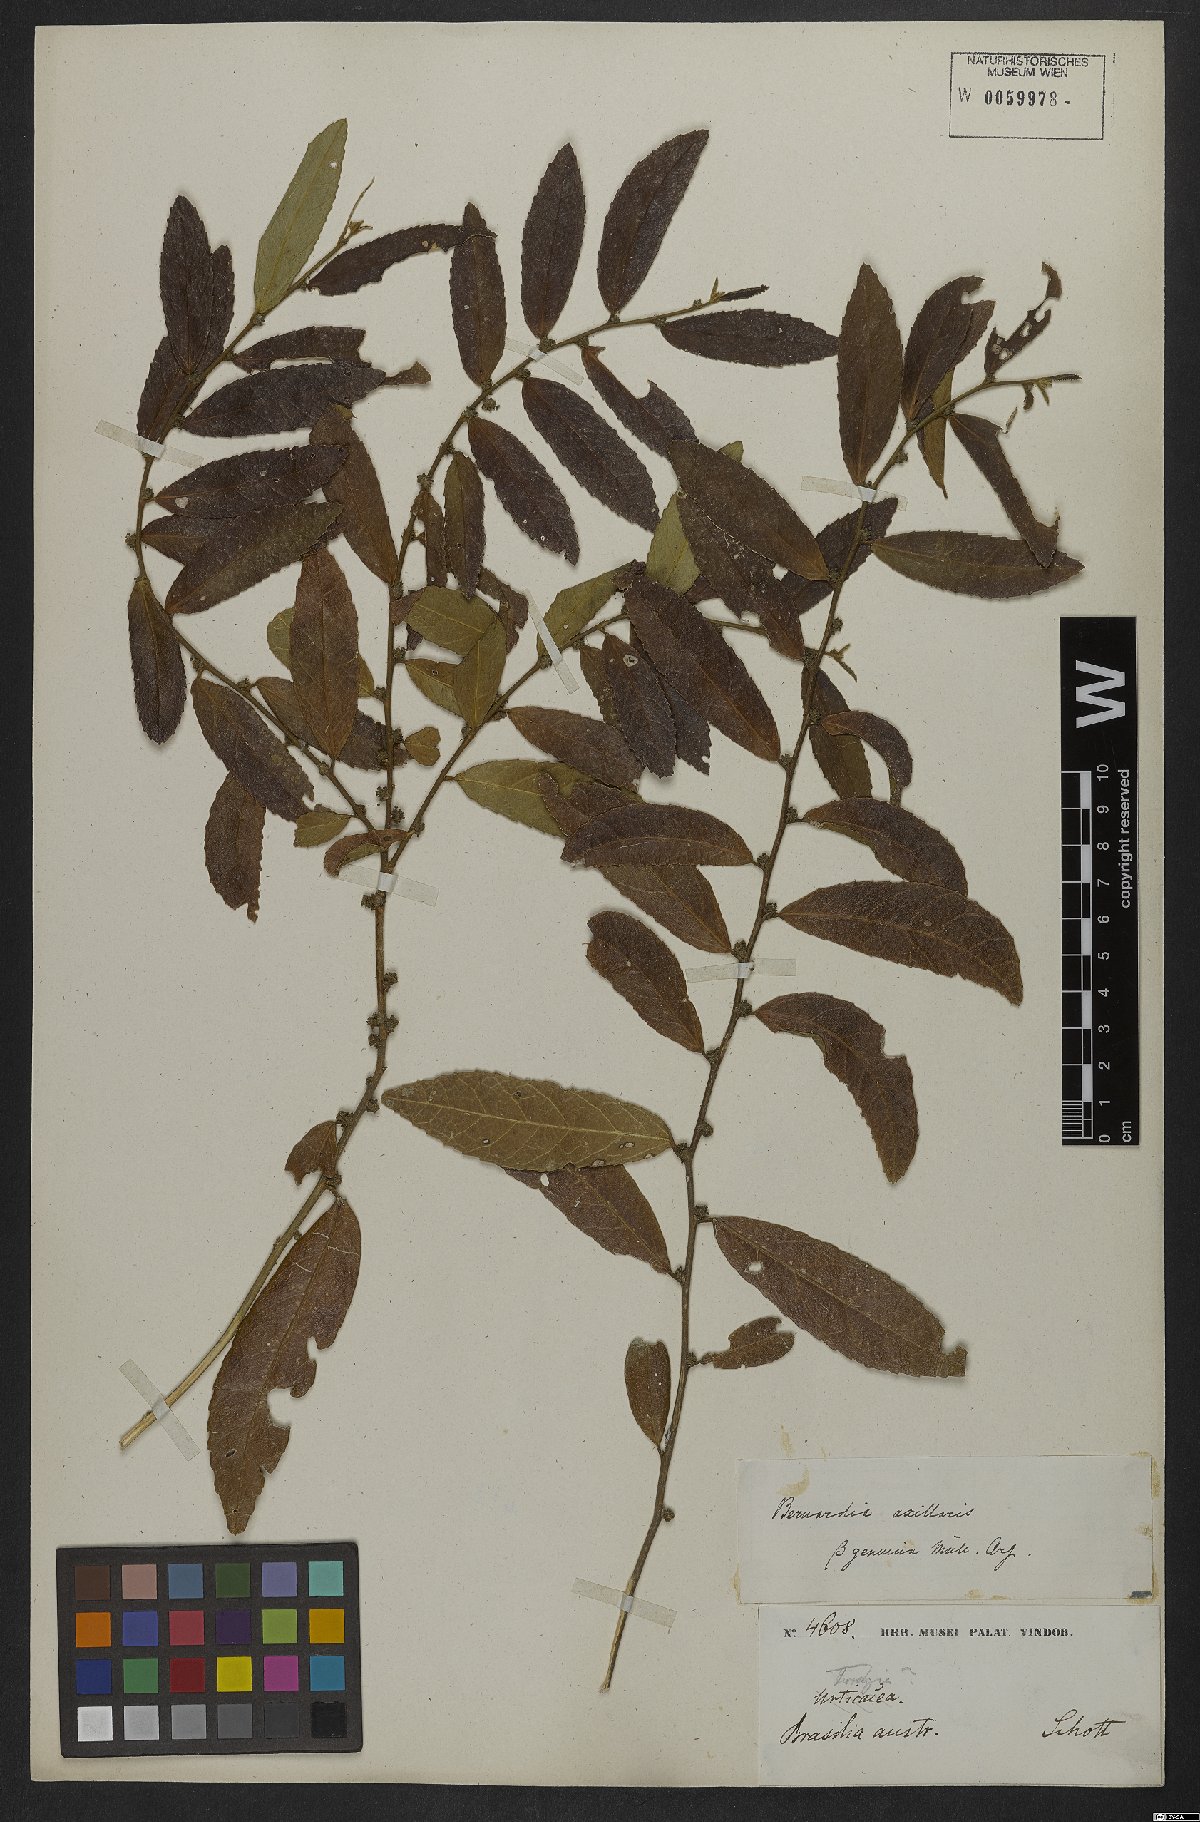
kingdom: Plantae
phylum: Tracheophyta
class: Magnoliopsida
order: Malpighiales
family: Euphorbiaceae
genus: Bernardia
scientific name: Bernardia axillaris
